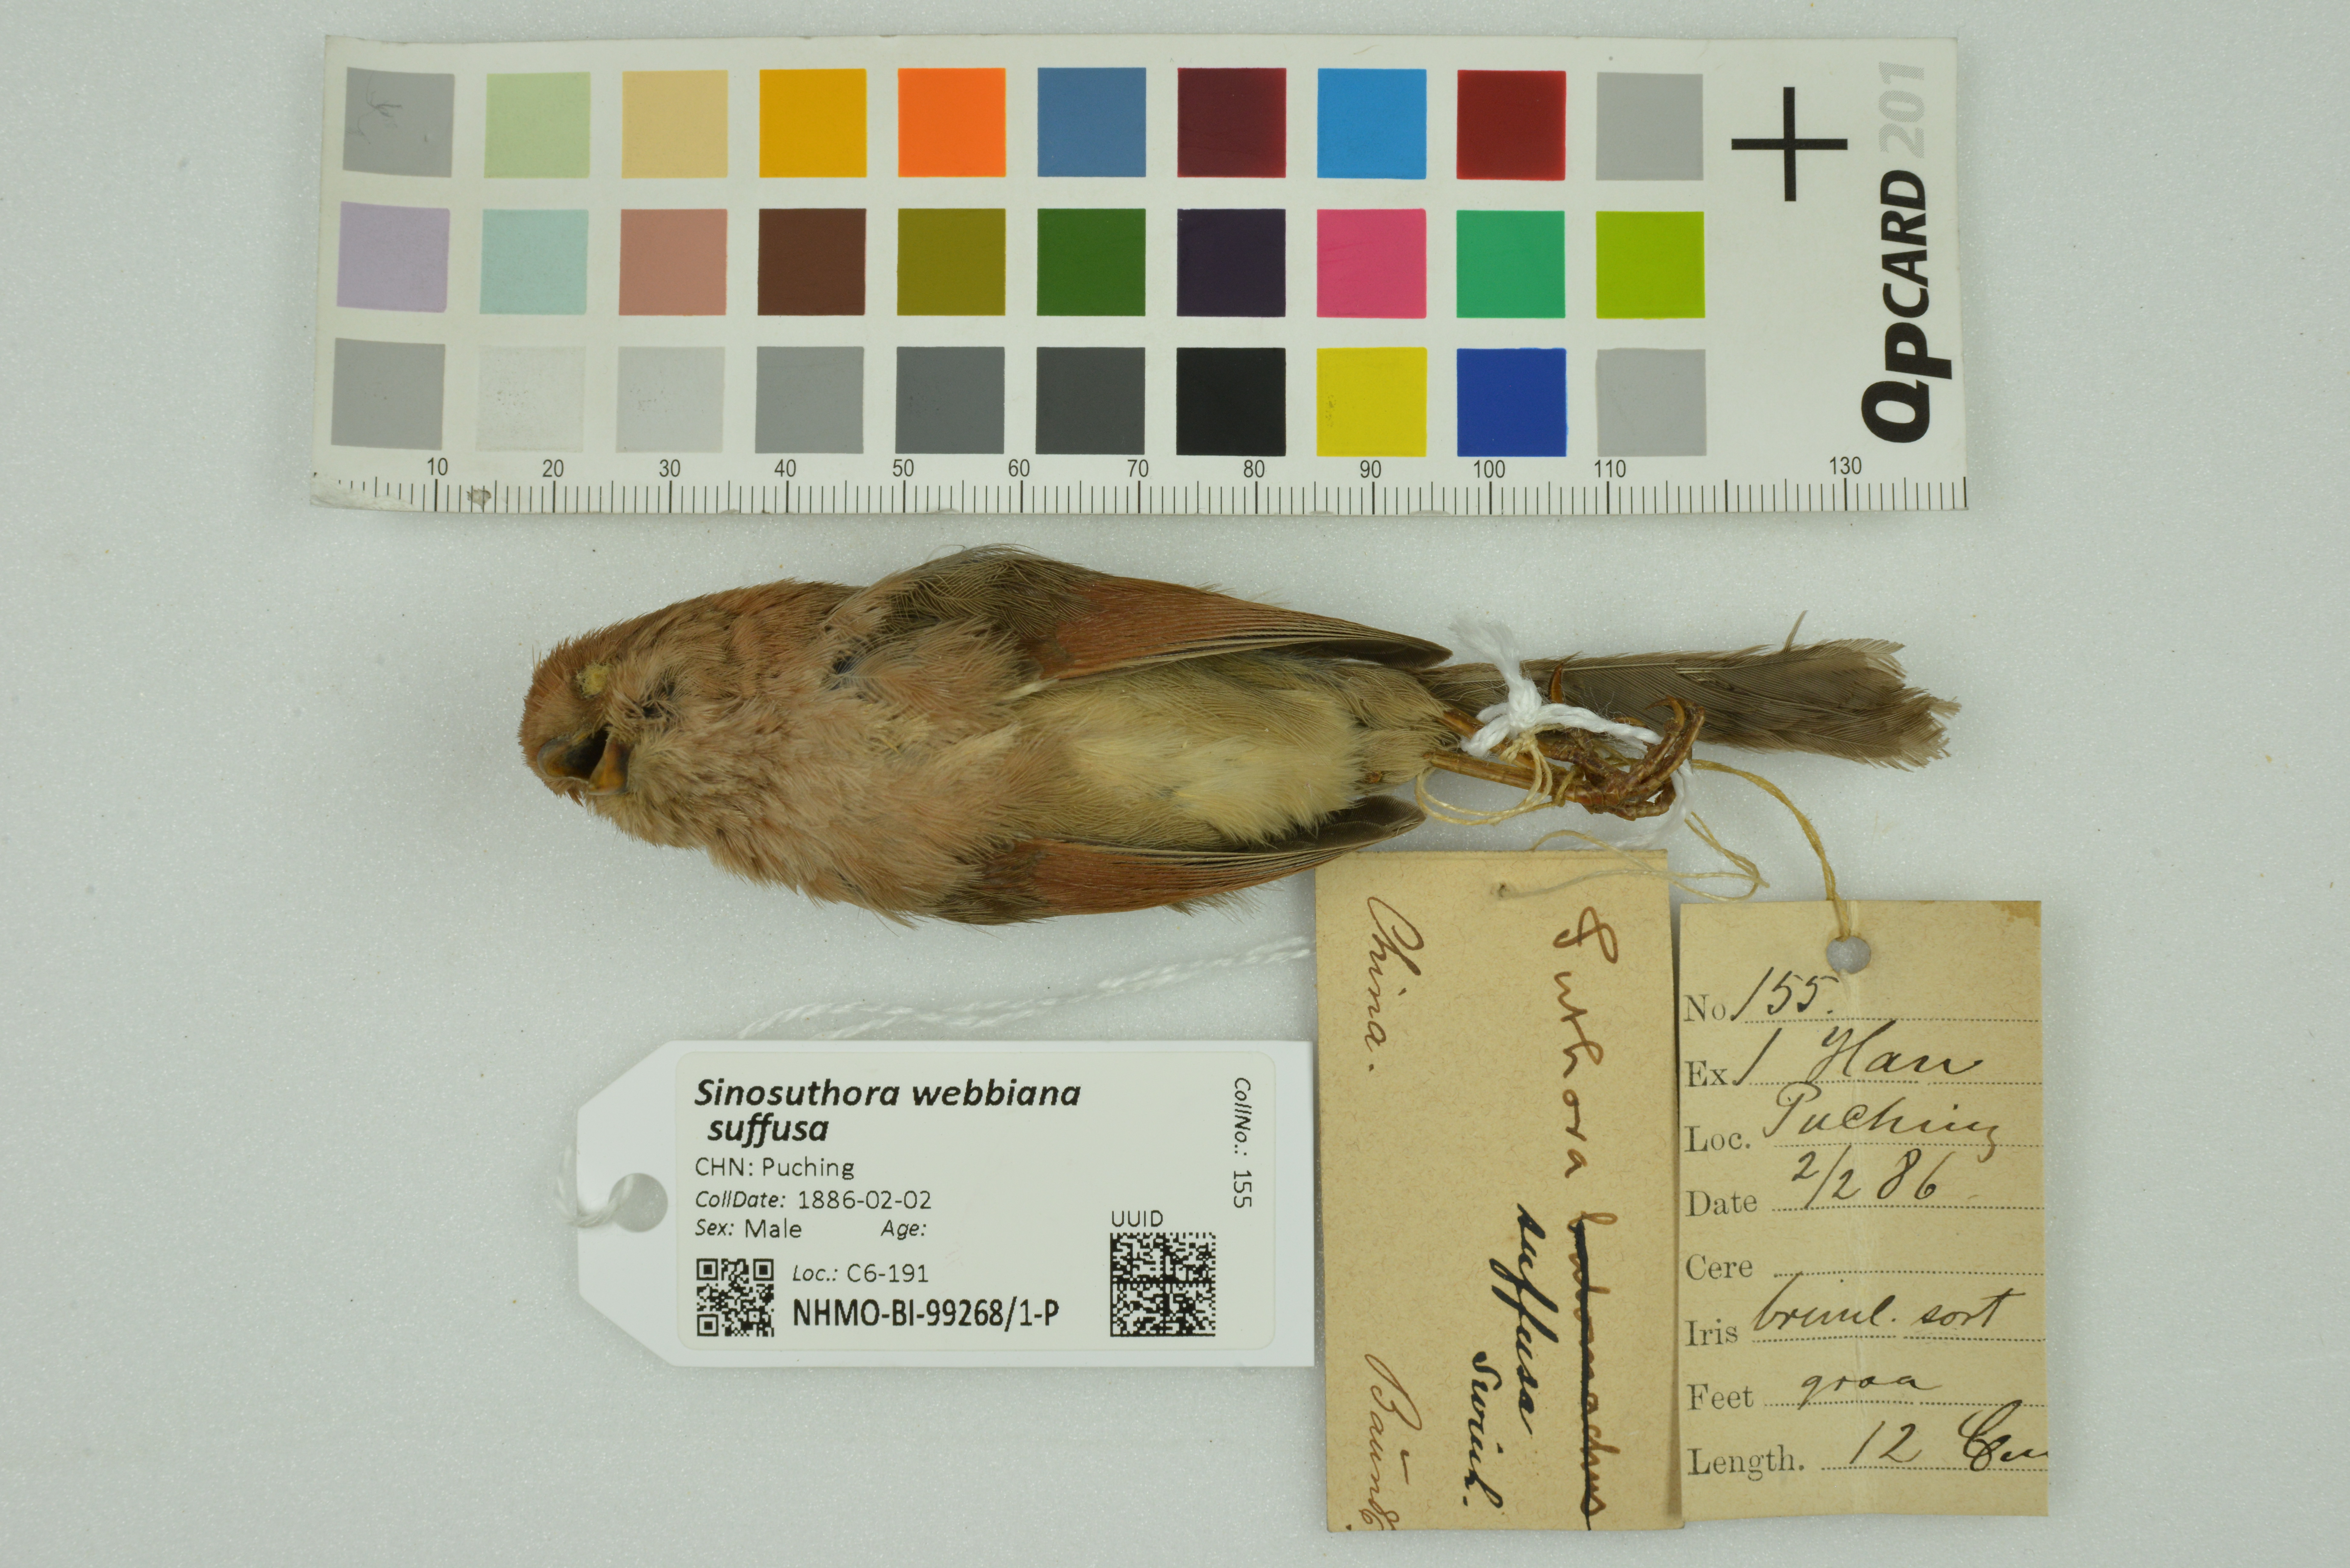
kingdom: Animalia
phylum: Chordata
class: Aves
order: Passeriformes
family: Sylviidae
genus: Sinosuthora
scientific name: Sinosuthora webbiana
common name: Vinous-throated parrotbill
